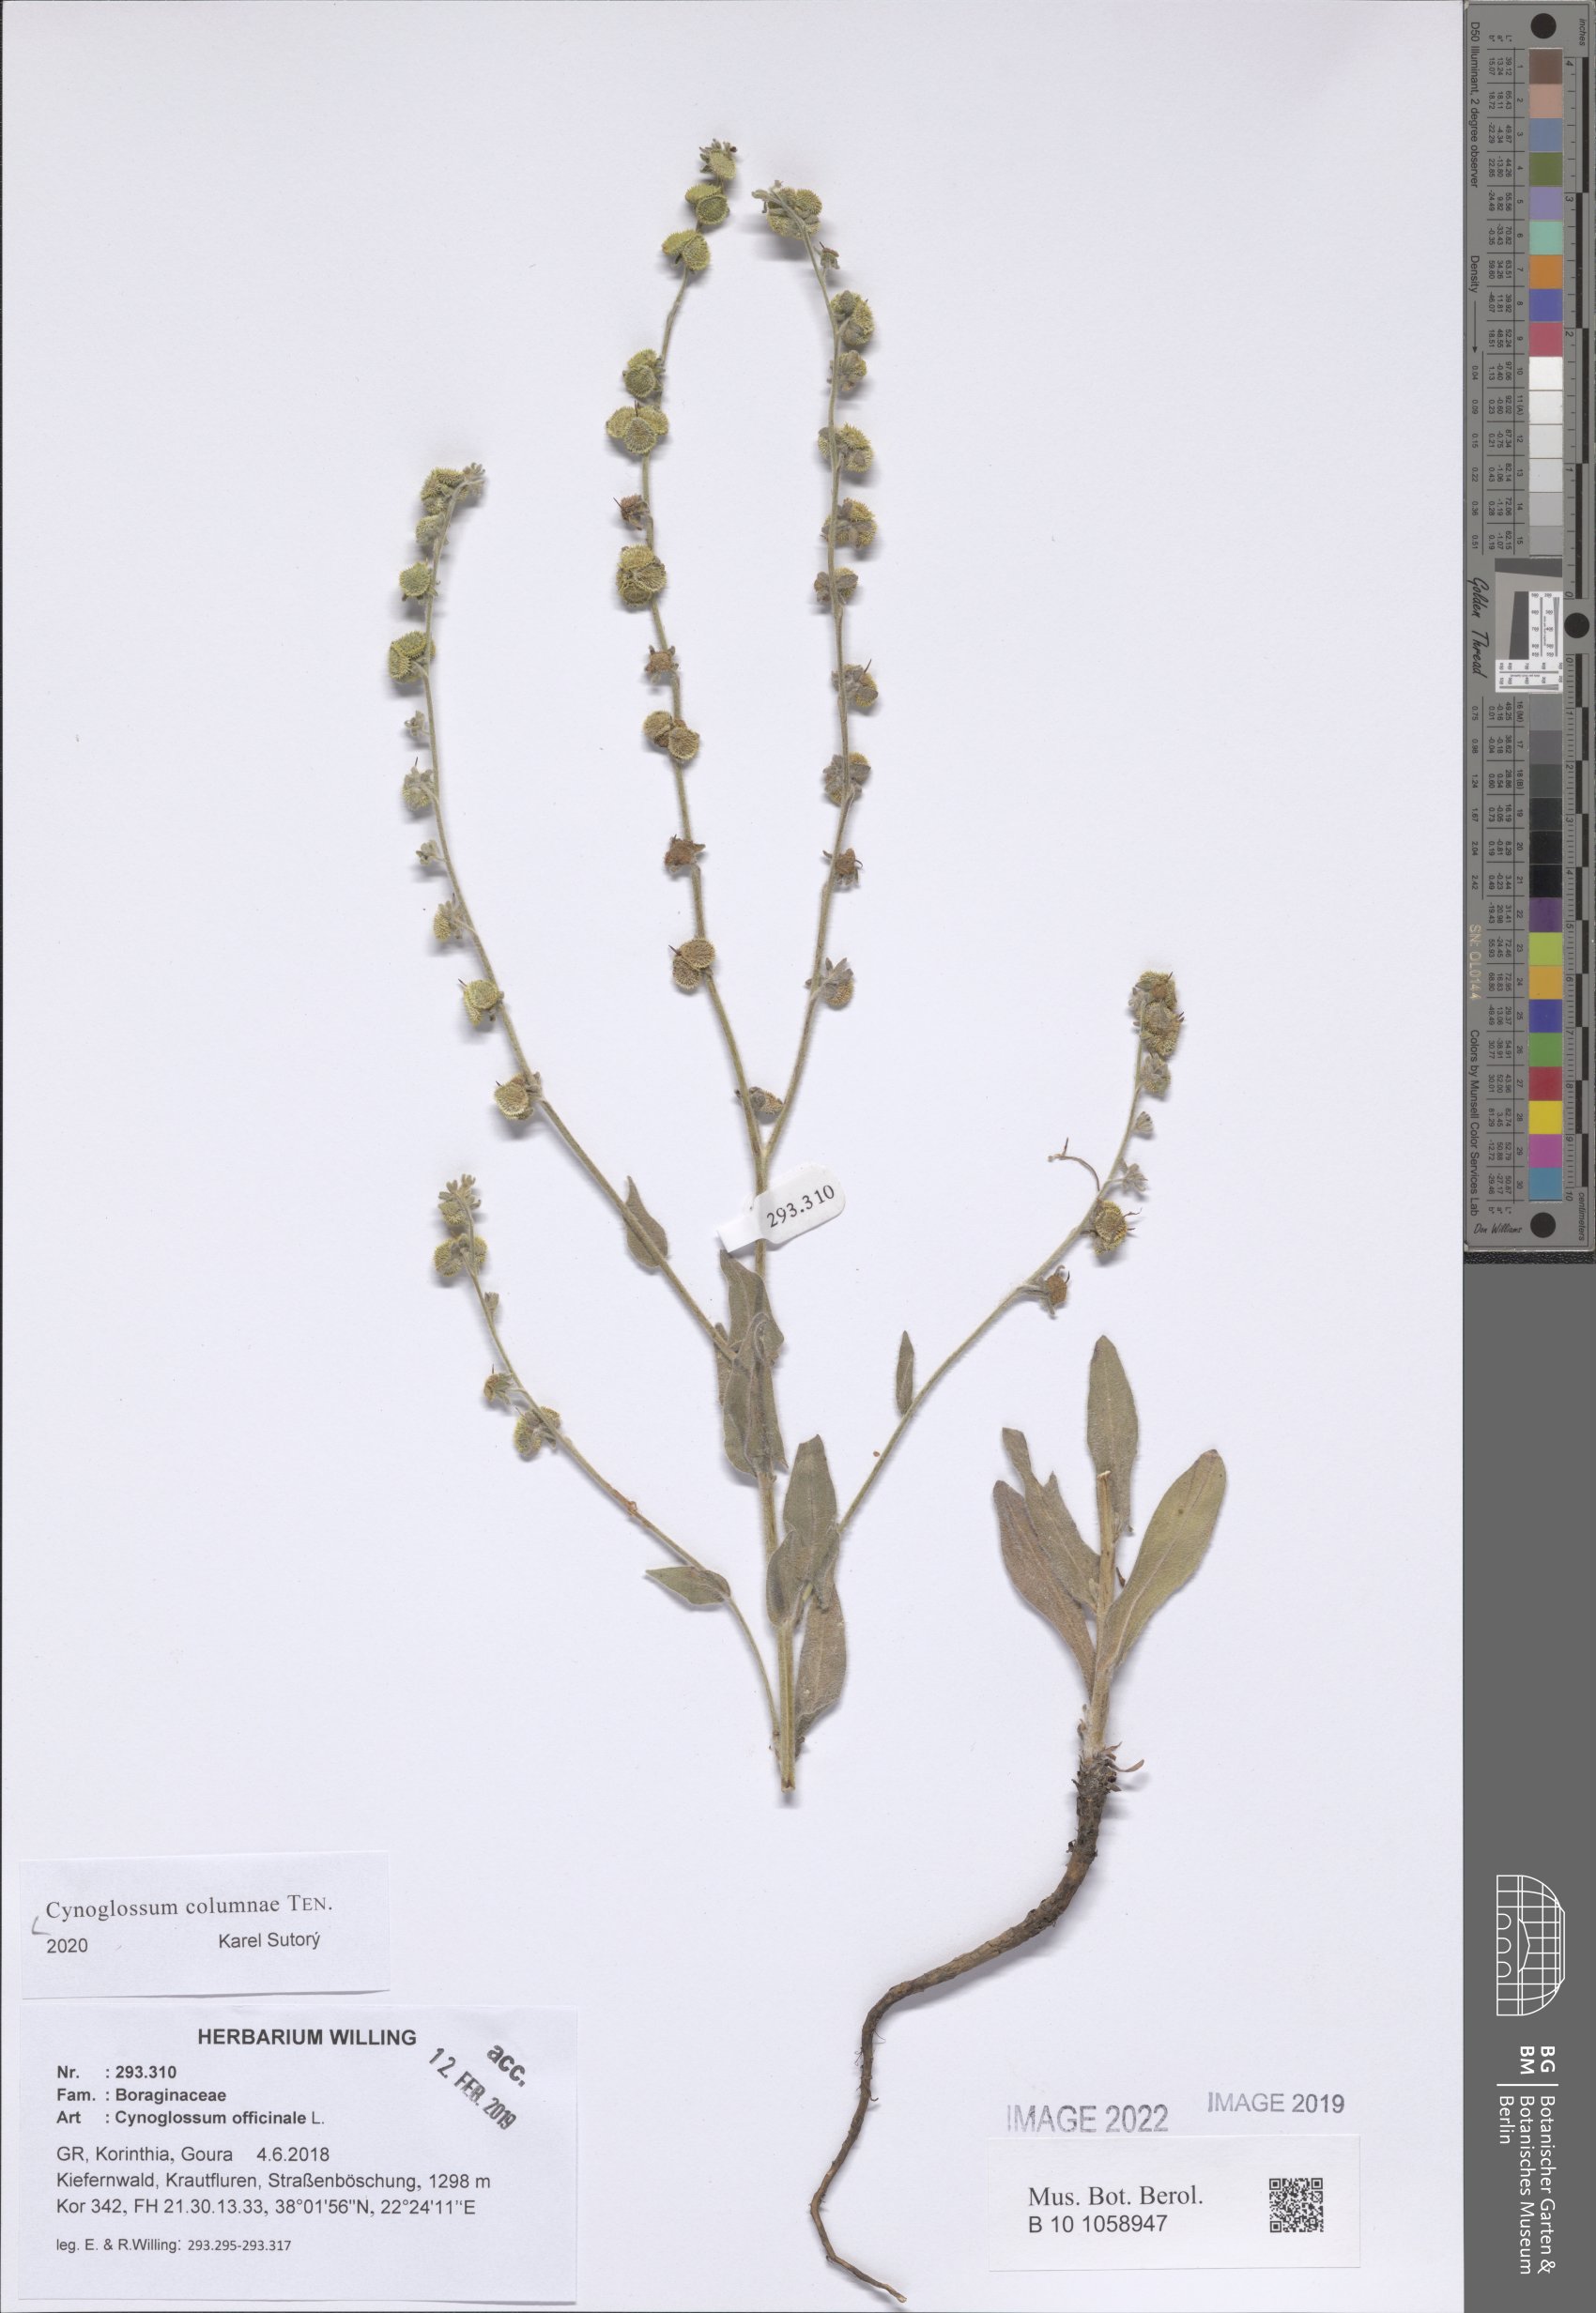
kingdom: Plantae
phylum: Tracheophyta
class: Magnoliopsida
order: Boraginales
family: Boraginaceae
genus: Rindera
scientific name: Rindera columnae
